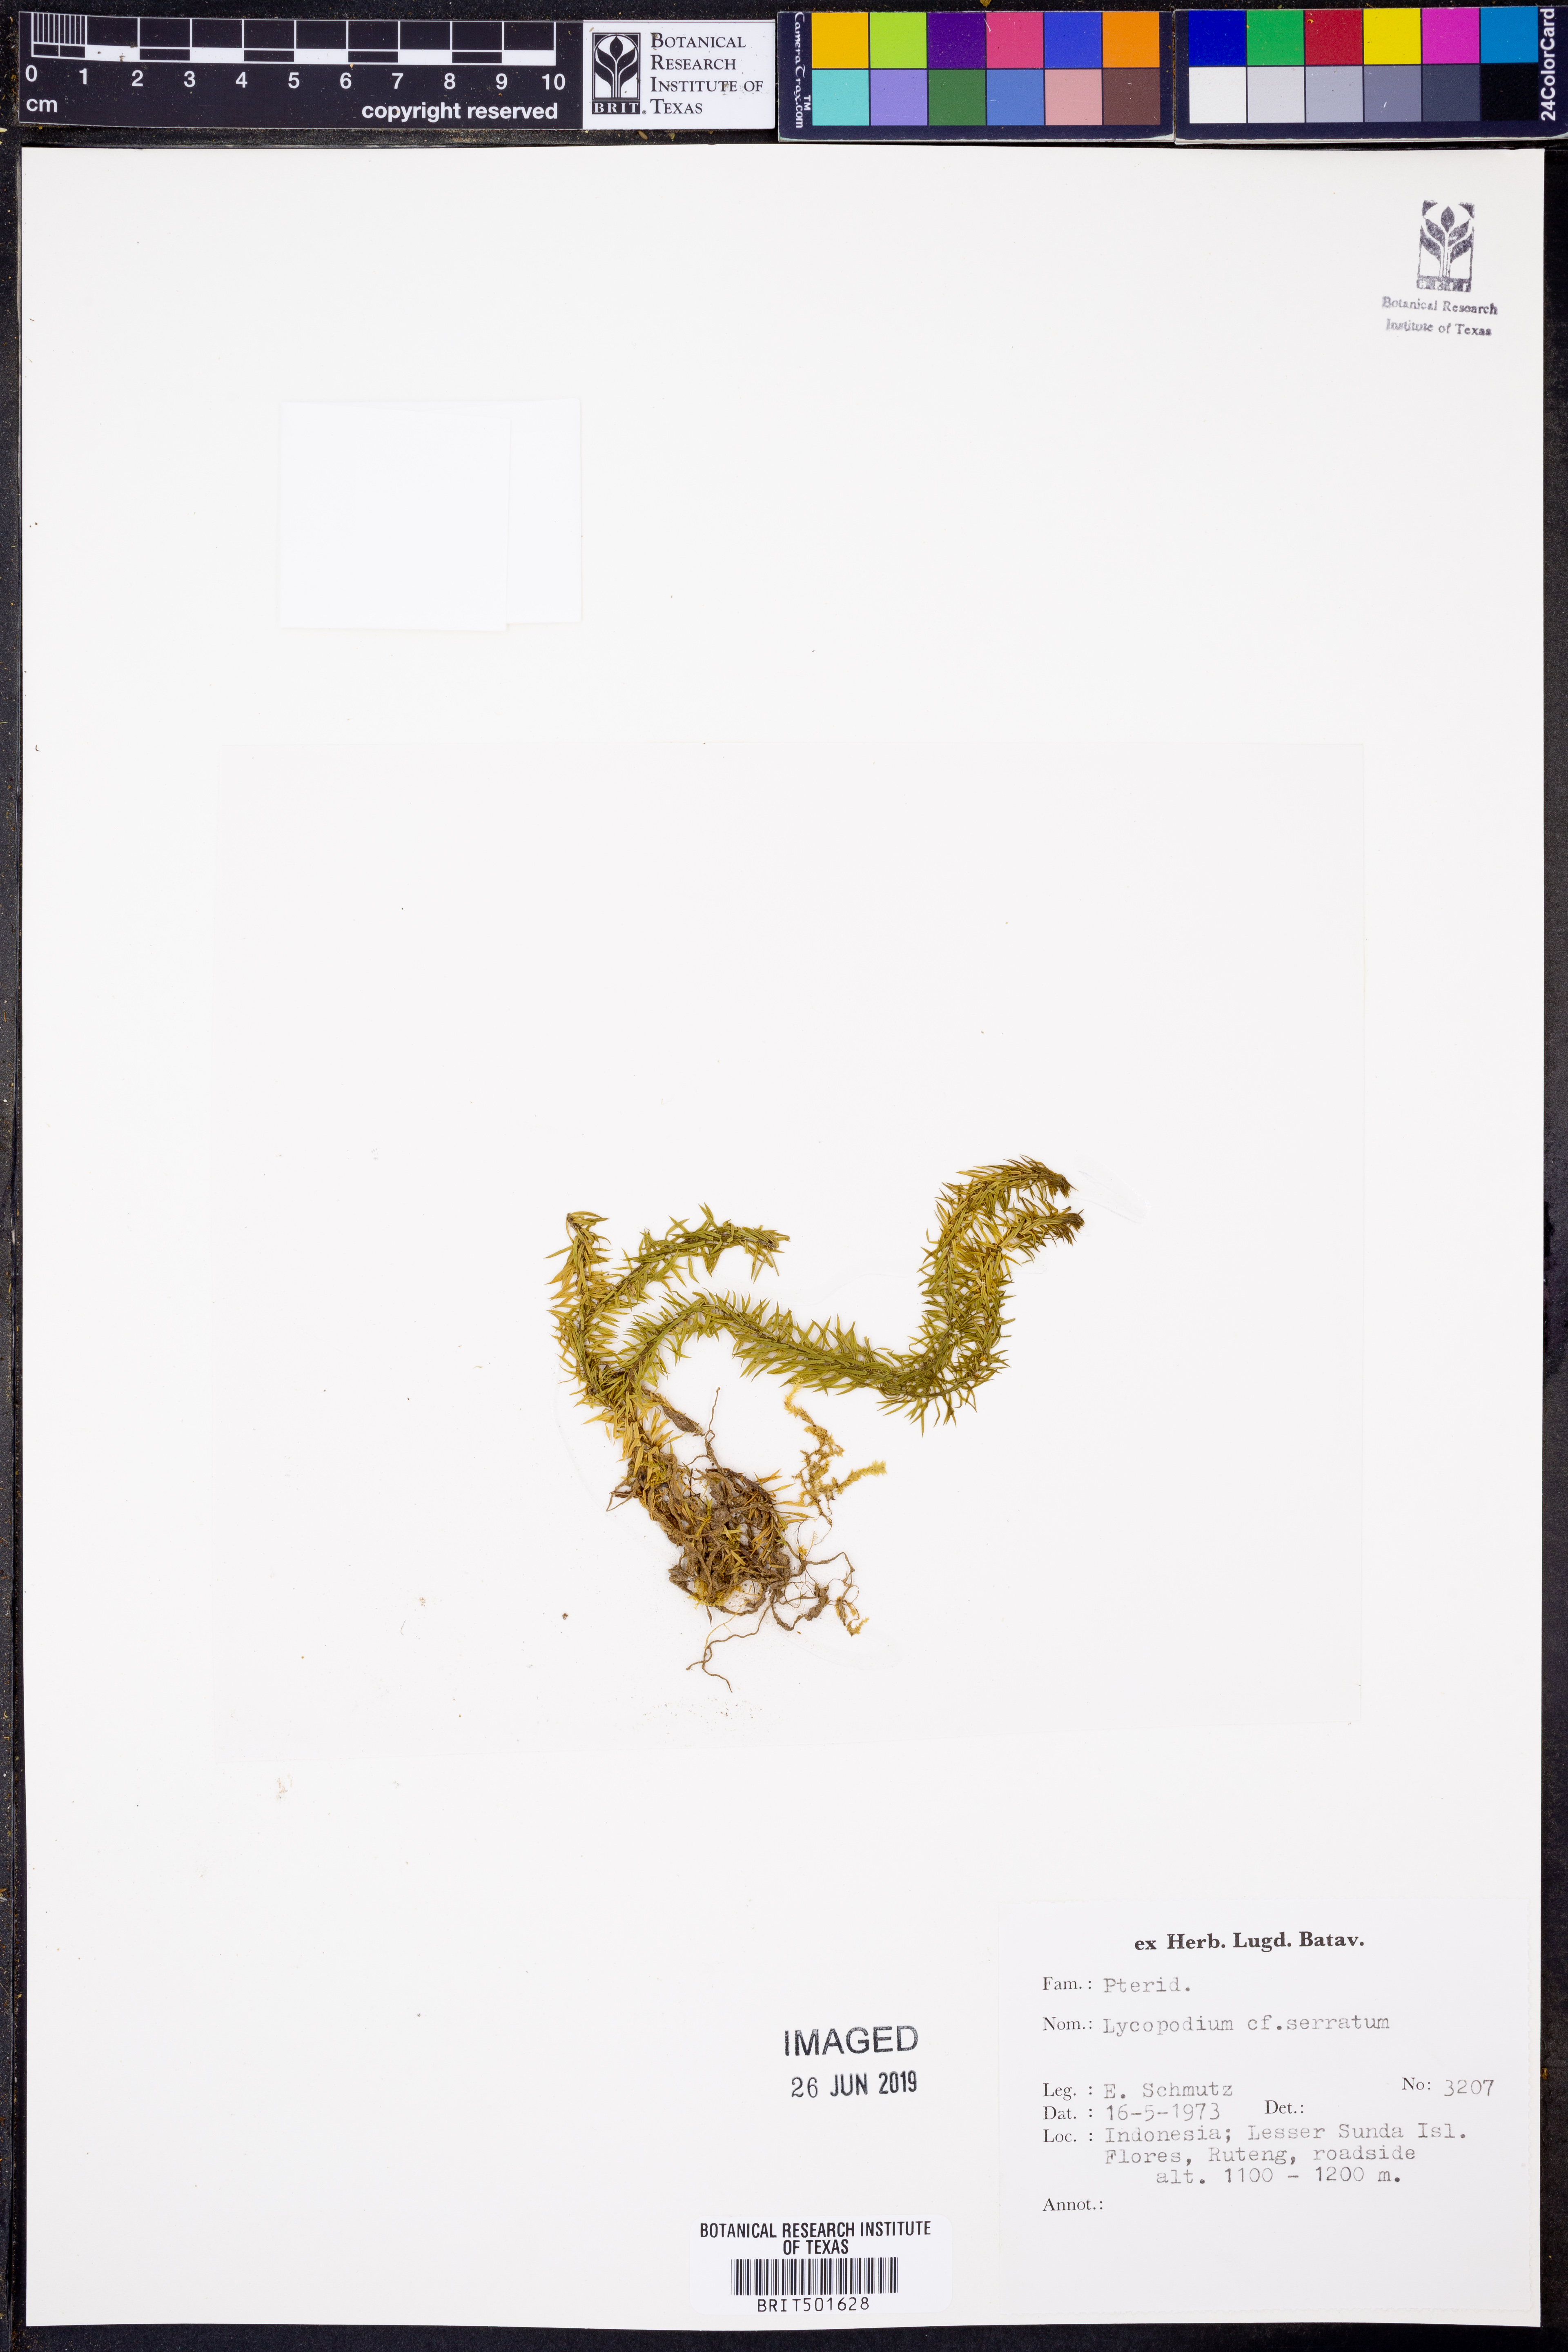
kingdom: Plantae
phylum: Tracheophyta
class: Lycopodiopsida
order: Lycopodiales
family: Lycopodiaceae
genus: Huperzia
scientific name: Huperzia serrata
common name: Toothed club-moss
